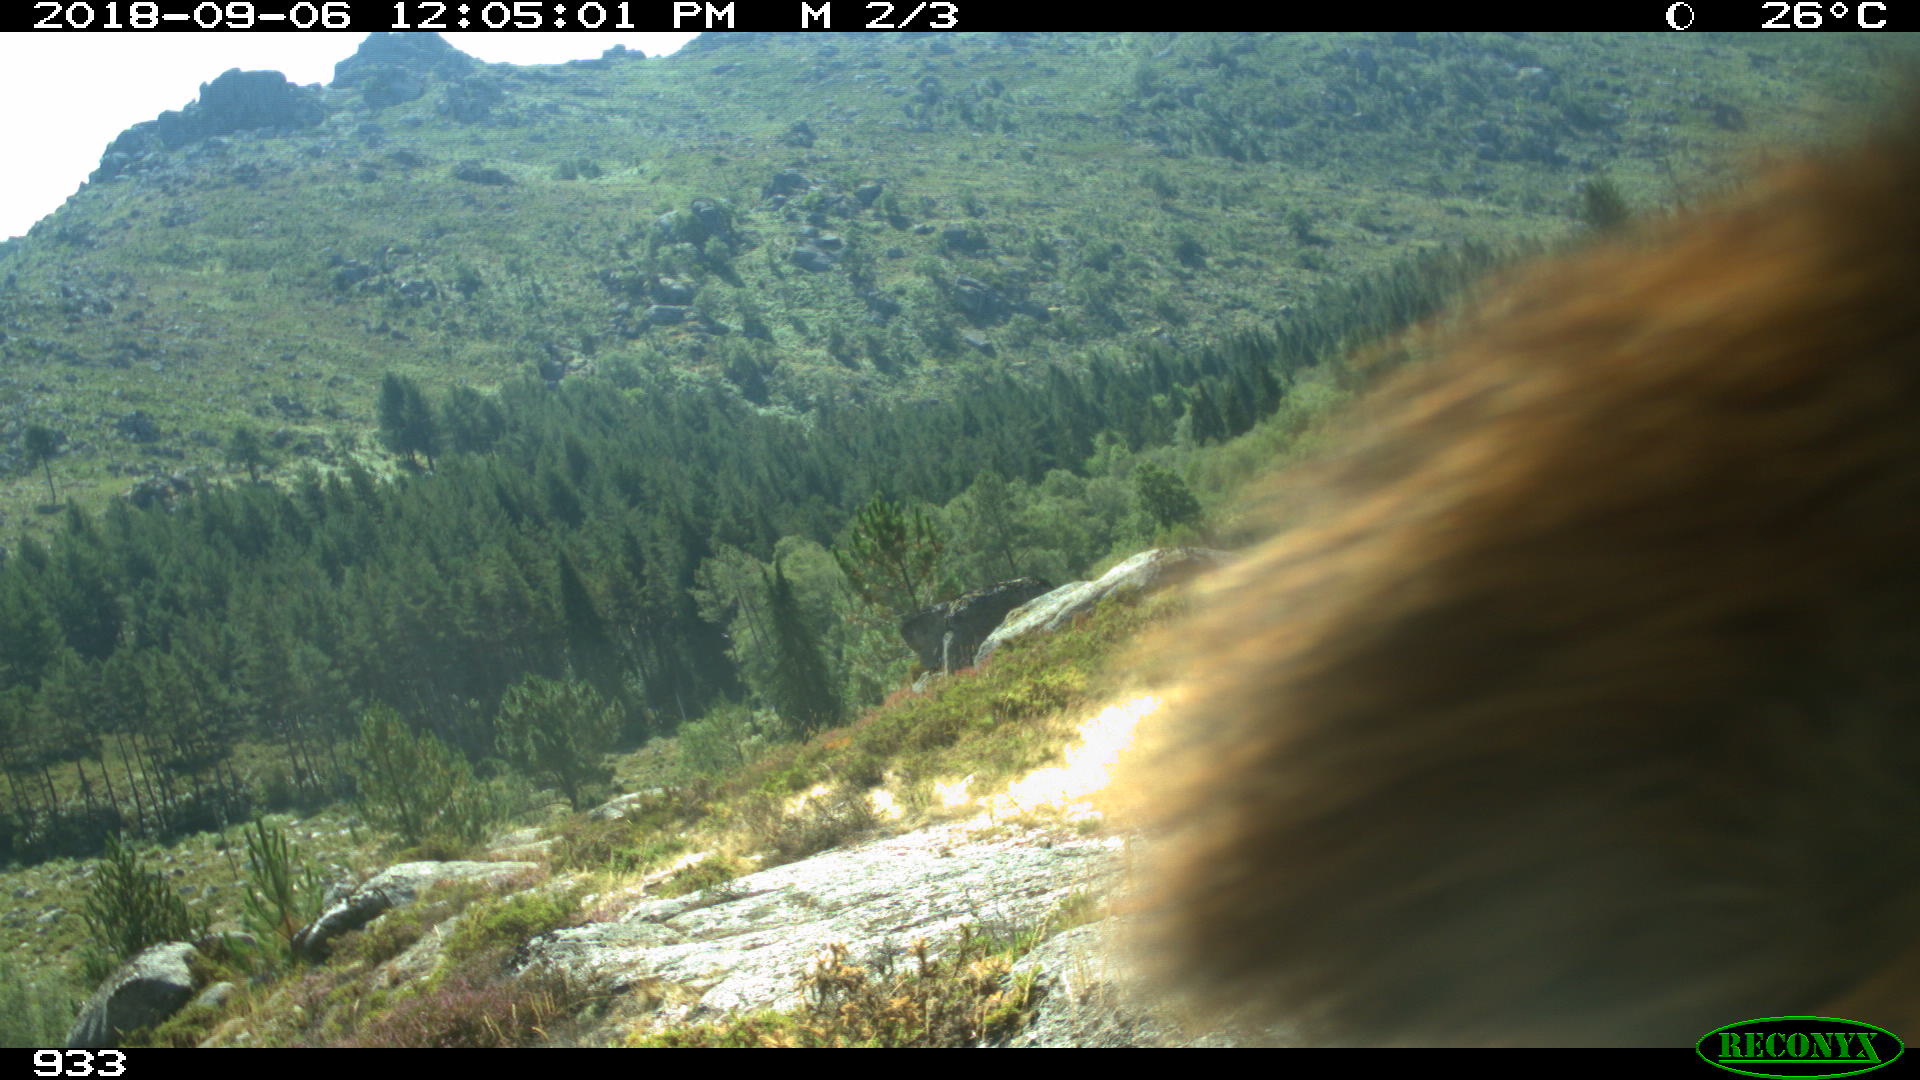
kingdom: Animalia
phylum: Chordata
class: Mammalia
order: Artiodactyla
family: Bovidae
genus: Bos
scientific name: Bos taurus
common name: Domesticated cattle
